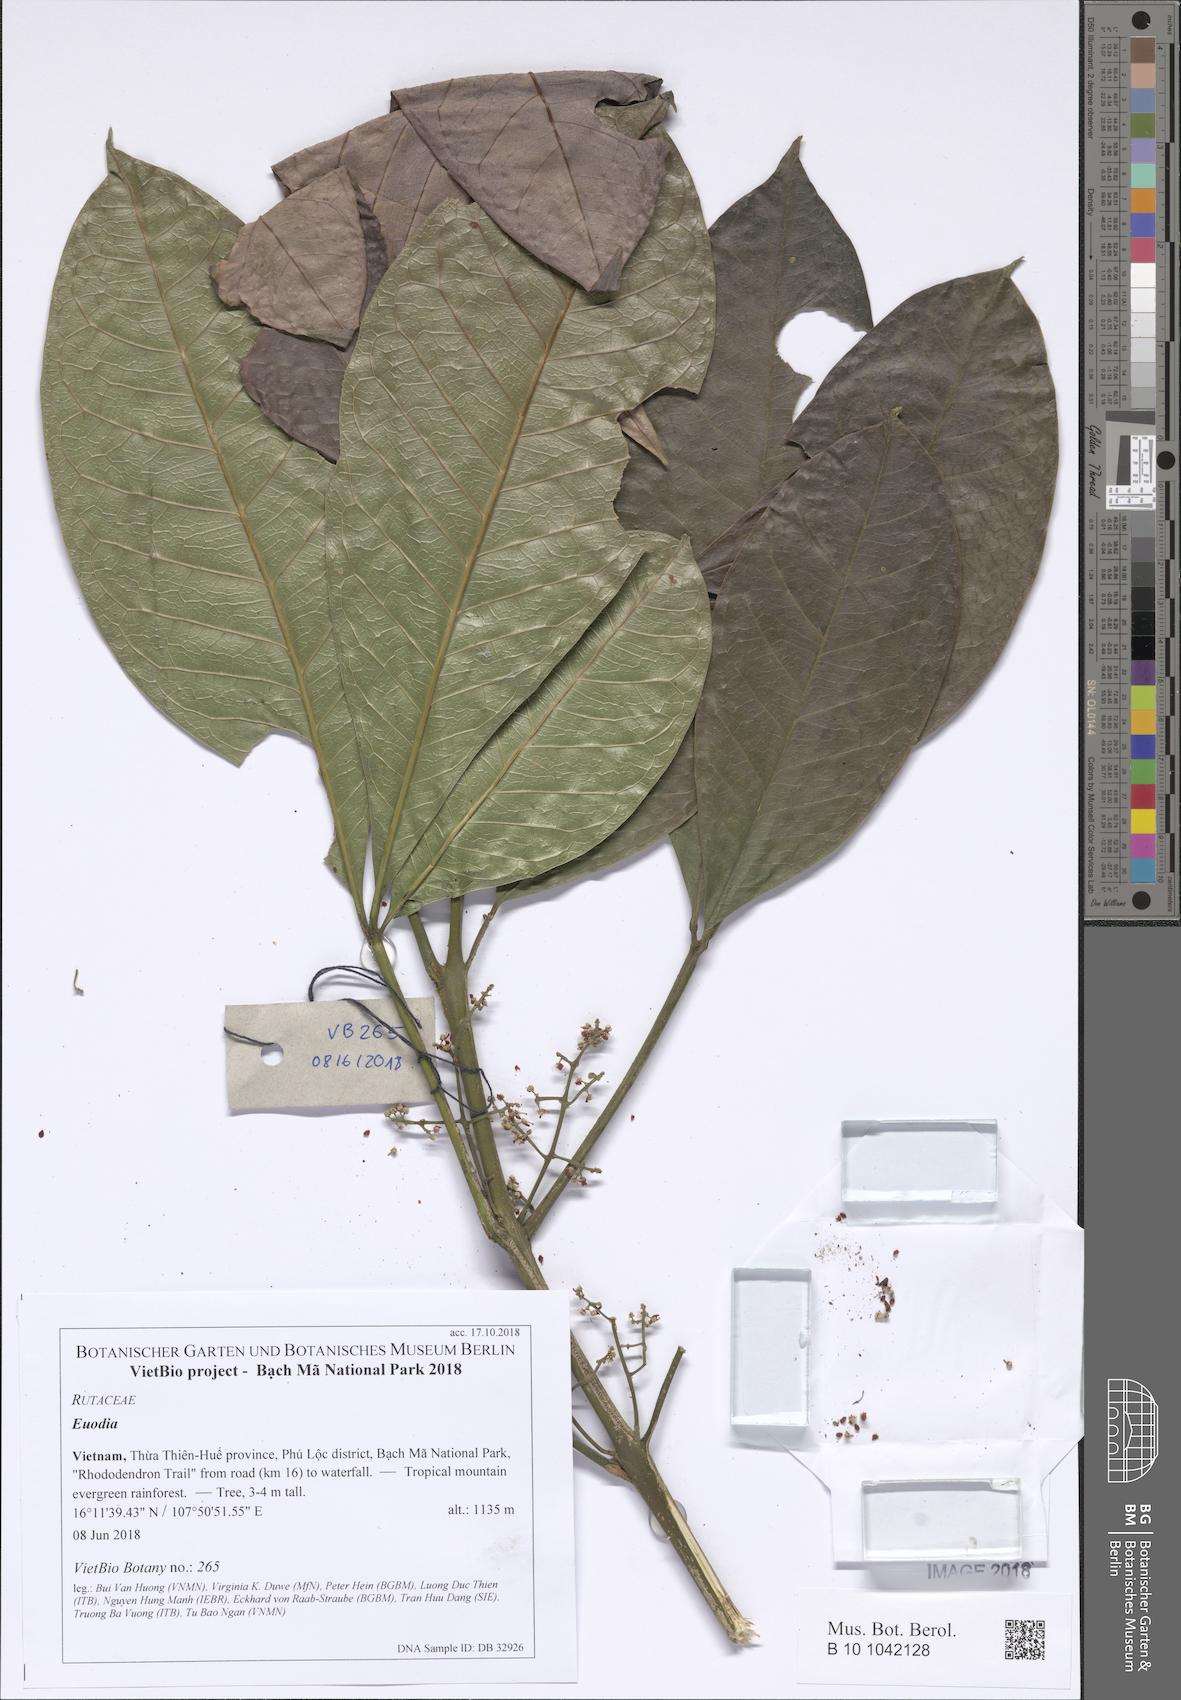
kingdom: Plantae
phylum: Tracheophyta
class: Magnoliopsida
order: Sapindales
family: Rutaceae
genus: Euodia
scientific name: Euodia
